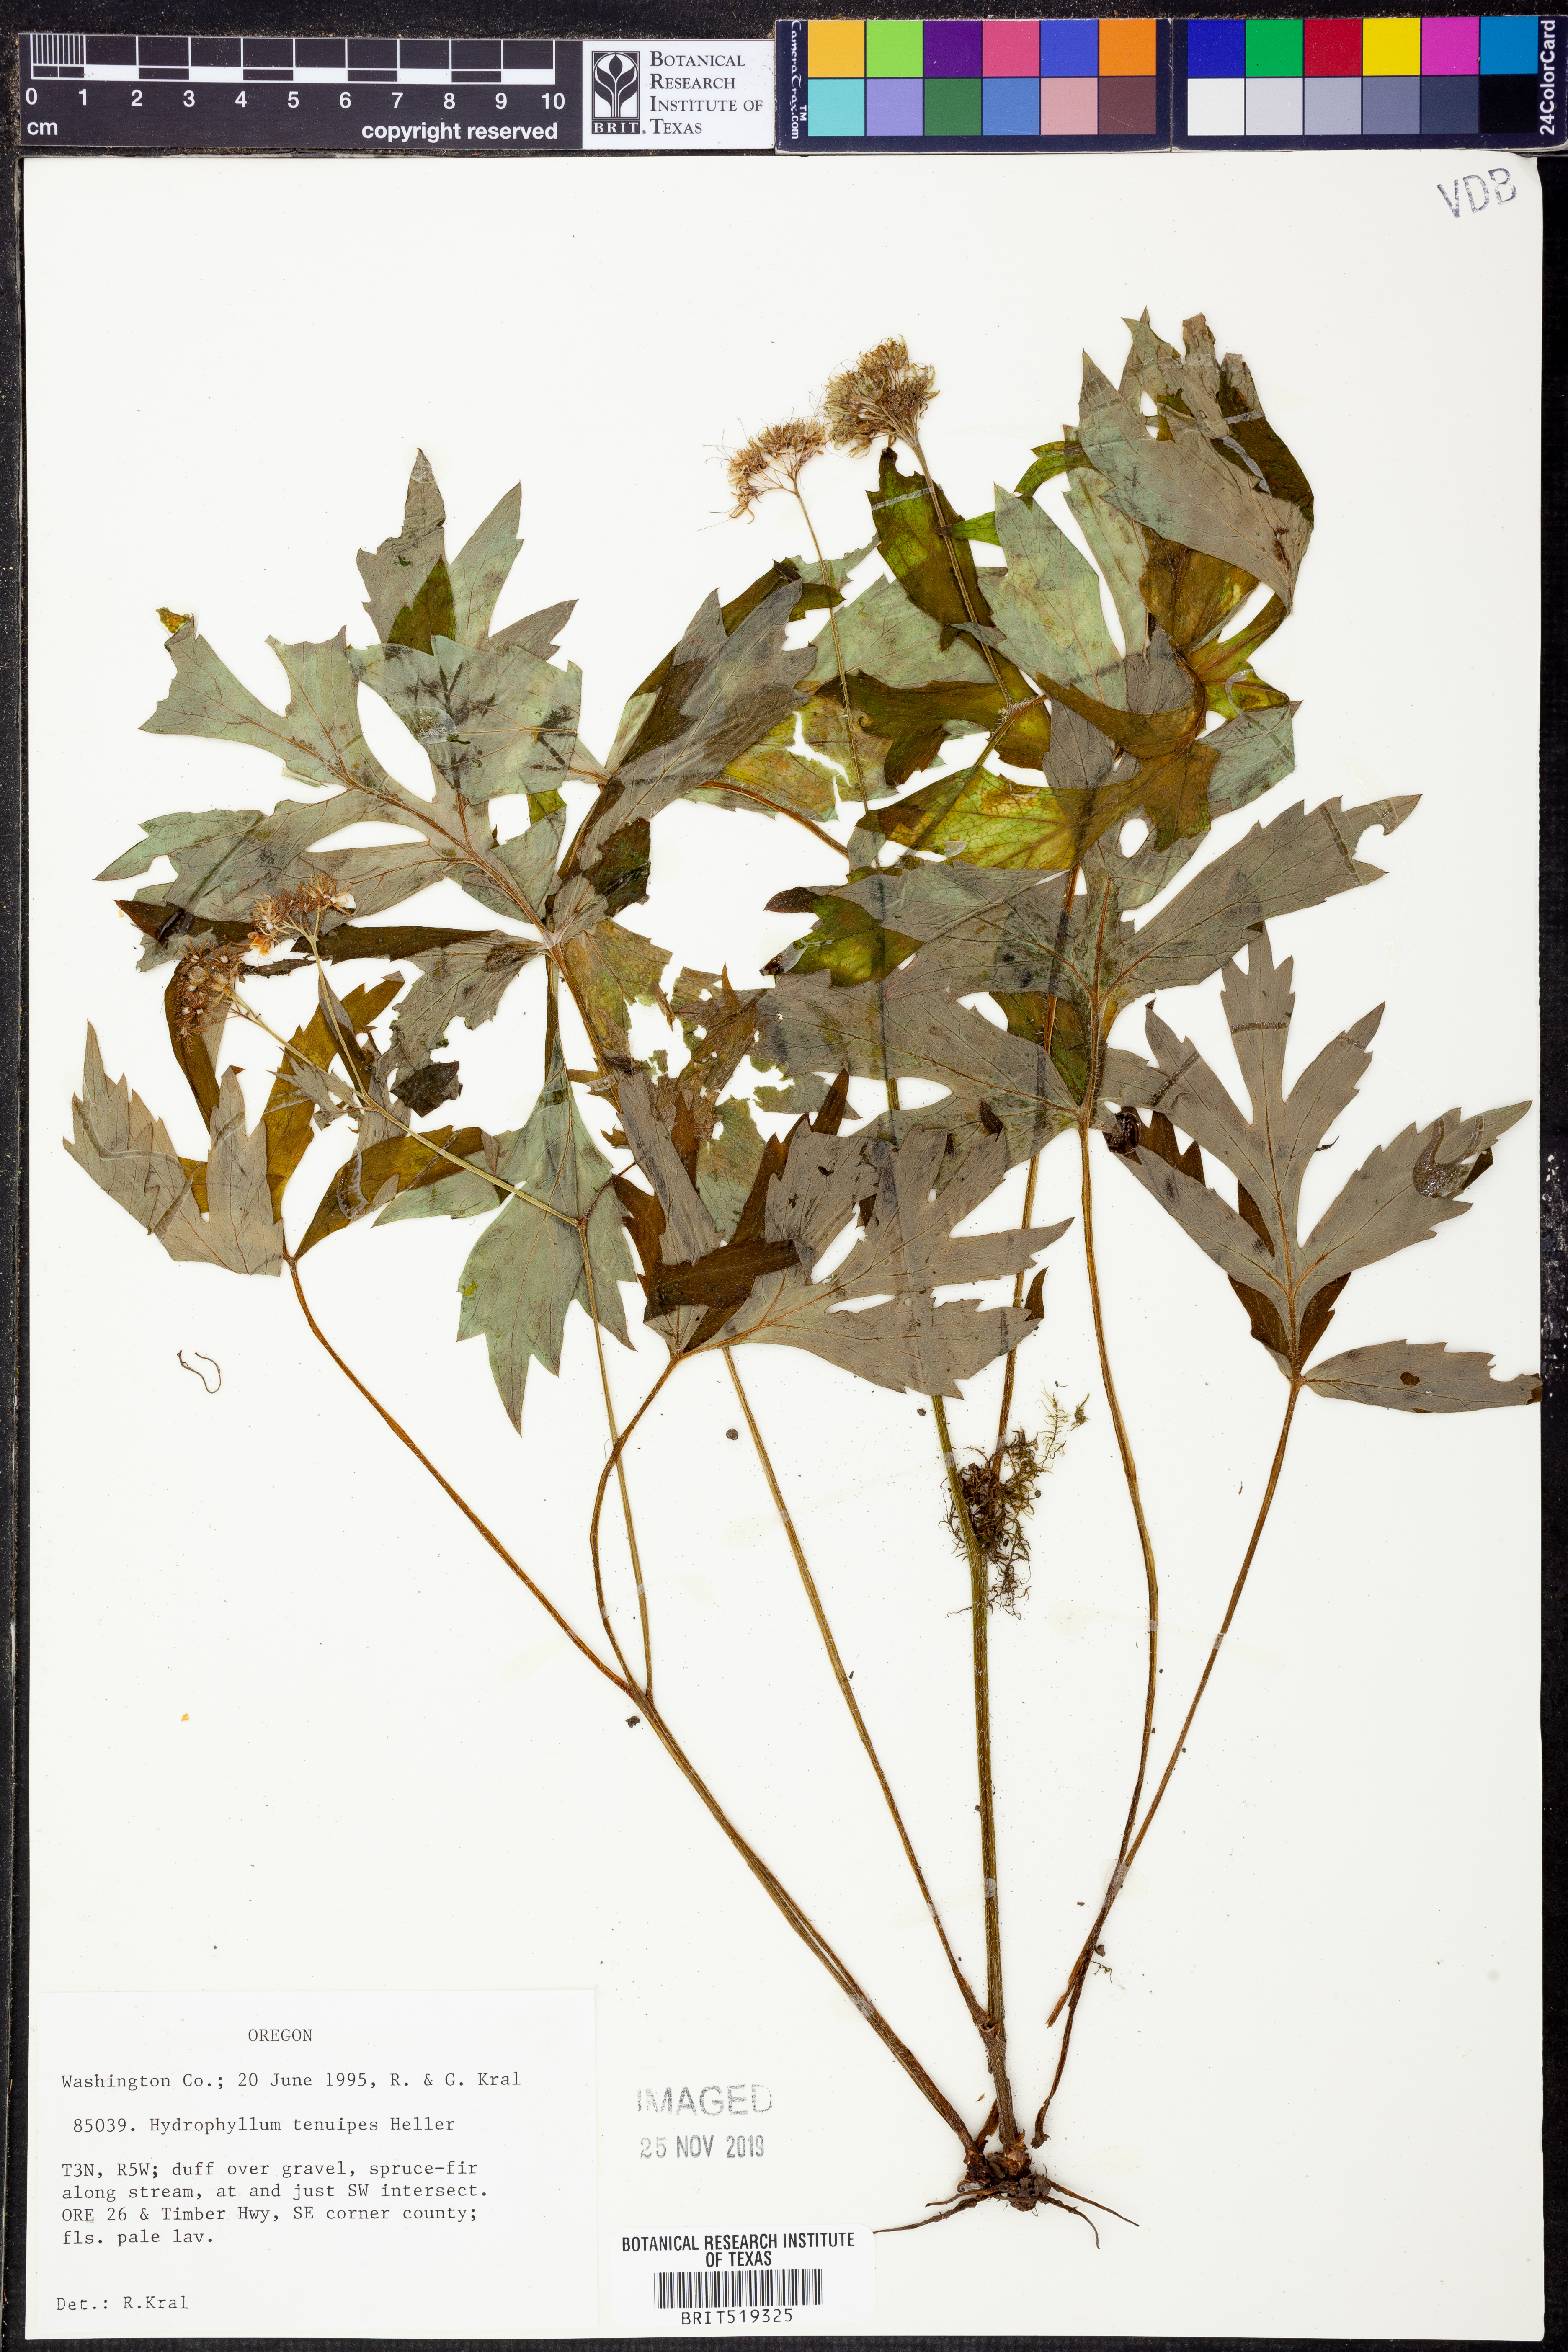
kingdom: Plantae
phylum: Tracheophyta
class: Magnoliopsida
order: Boraginales
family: Hydrophyllaceae
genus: Hydrophyllum
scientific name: Hydrophyllum tenuipes
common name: Pacific waterleaf
